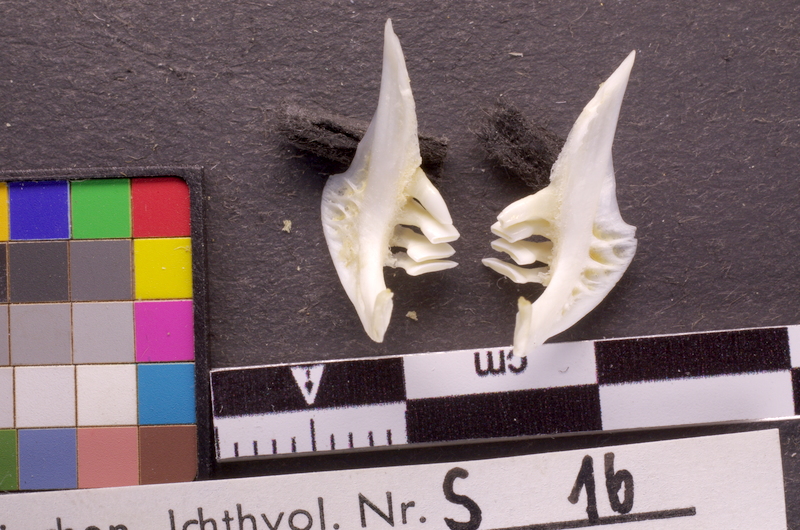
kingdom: Animalia
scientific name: Animalia
